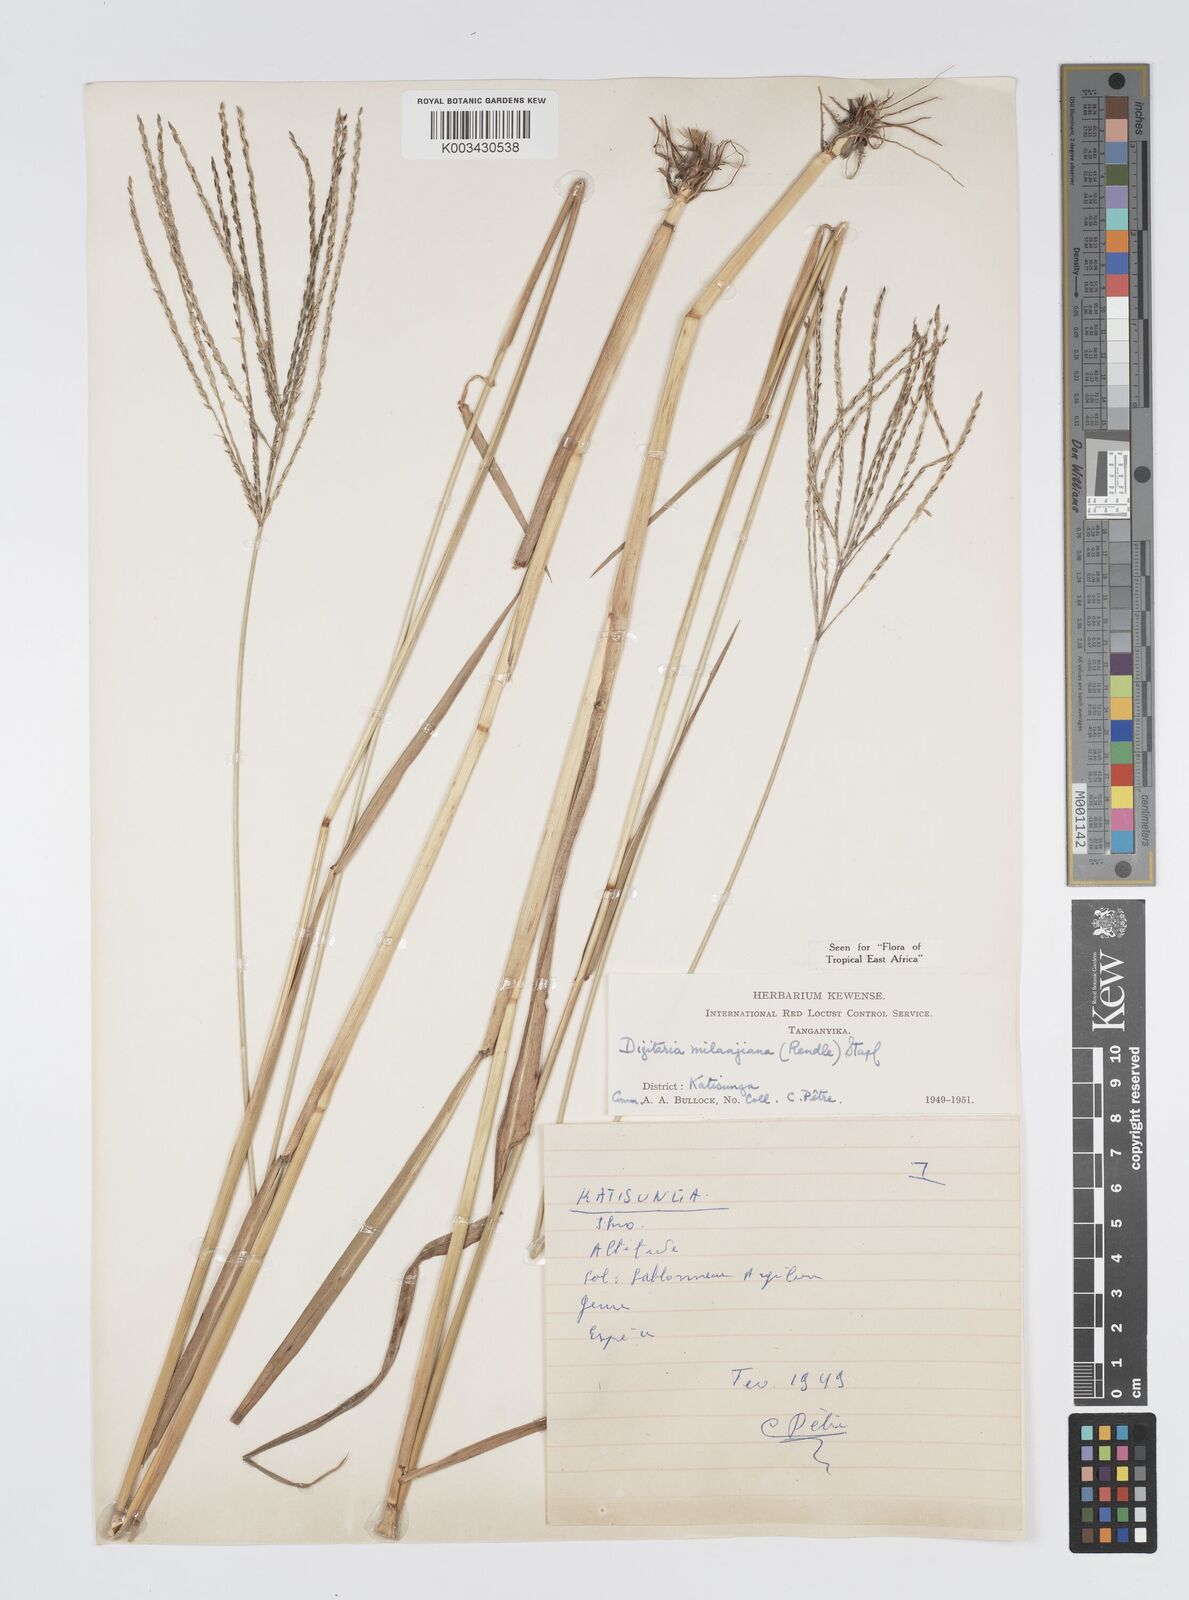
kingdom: Plantae
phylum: Tracheophyta
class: Liliopsida
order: Poales
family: Poaceae
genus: Digitaria
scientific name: Digitaria milanjiana
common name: Madagascar crabgrass
